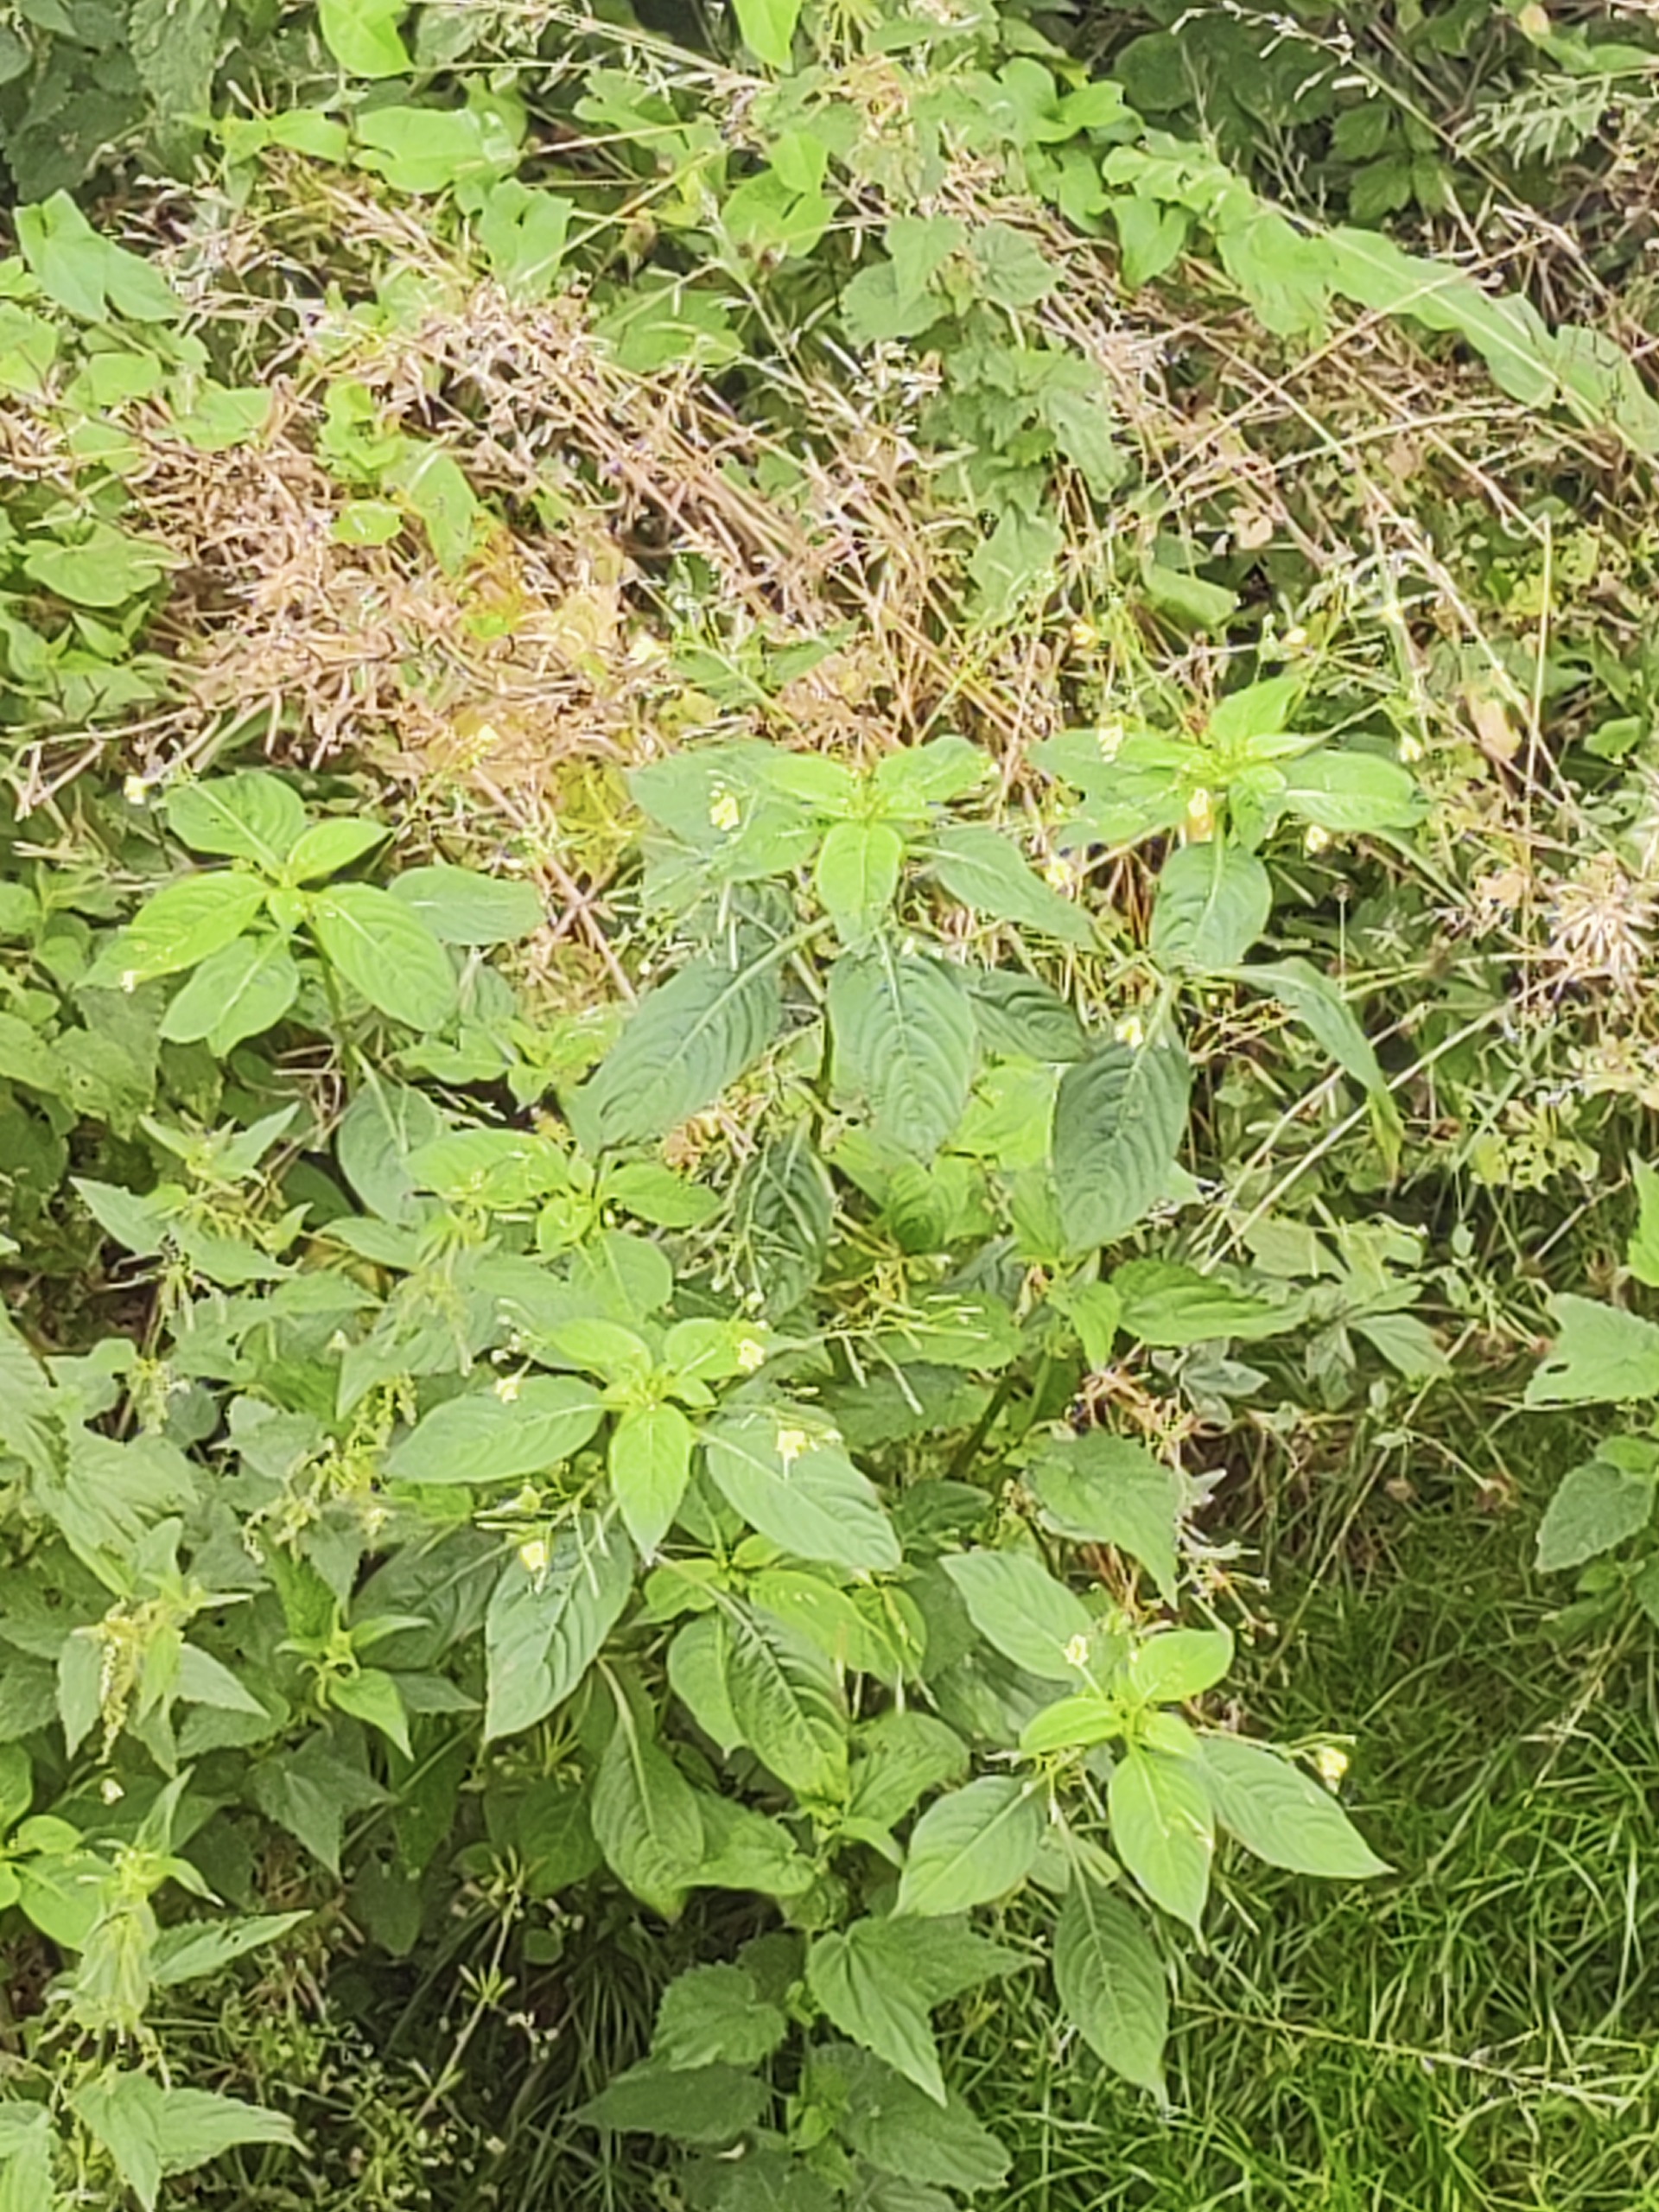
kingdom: Plantae
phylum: Tracheophyta
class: Magnoliopsida
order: Ericales
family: Balsaminaceae
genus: Impatiens
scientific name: Impatiens parviflora
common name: Småblomstret balsamin
